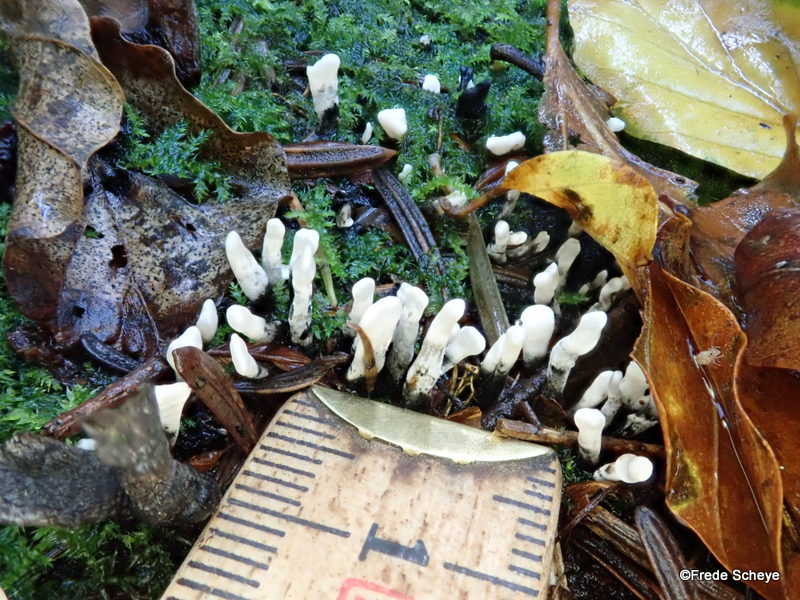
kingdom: Fungi
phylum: Ascomycota
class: Sordariomycetes
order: Xylariales
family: Xylariaceae
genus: Xylaria
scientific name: Xylaria hypoxylon
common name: grenet stødsvamp
